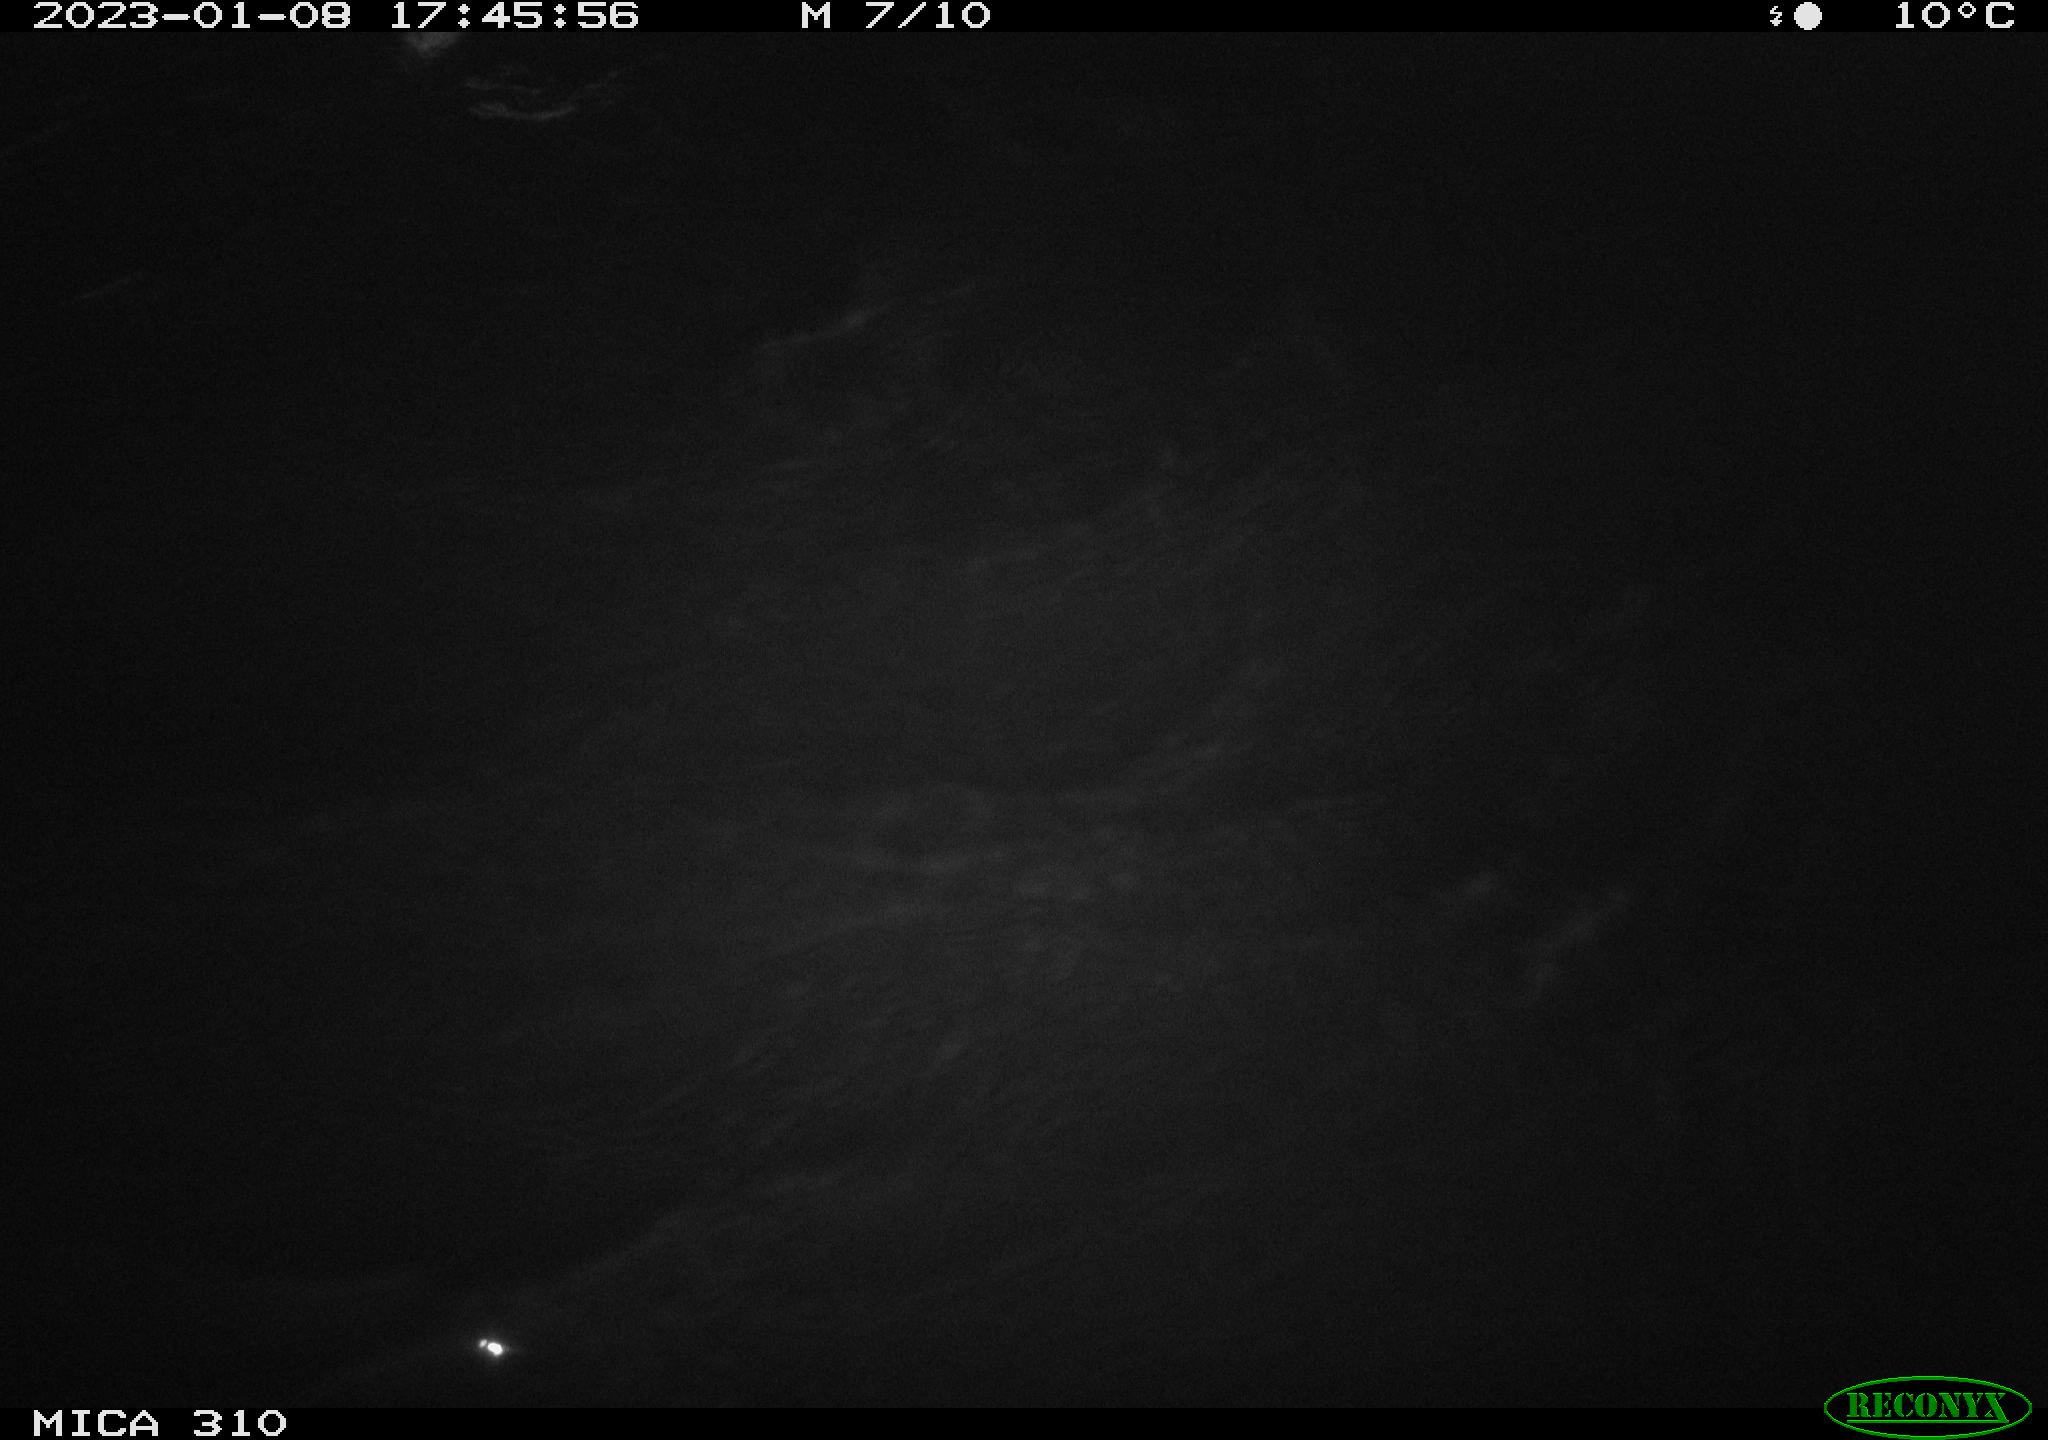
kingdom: Animalia
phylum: Chordata
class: Aves
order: Anseriformes
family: Anatidae
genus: Anas
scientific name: Anas
